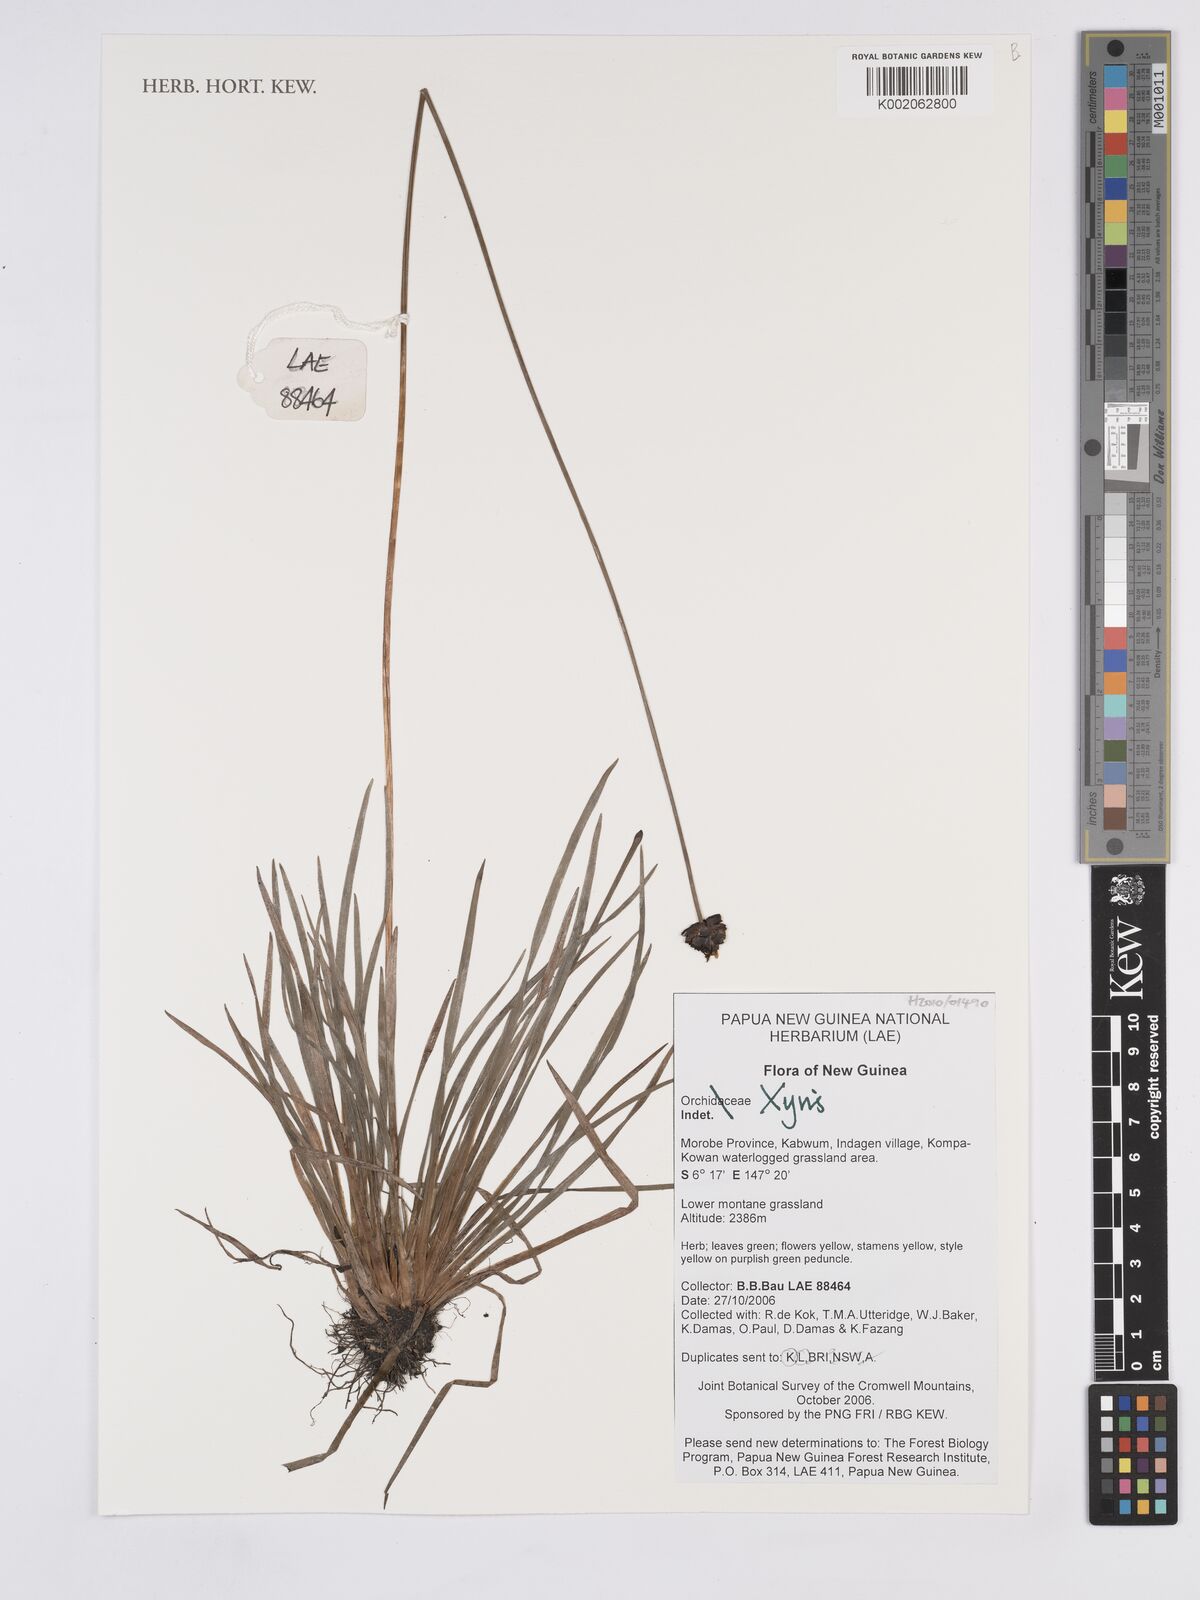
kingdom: Plantae
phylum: Tracheophyta
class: Liliopsida
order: Poales
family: Xyridaceae
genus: Xyris
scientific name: Xyris
